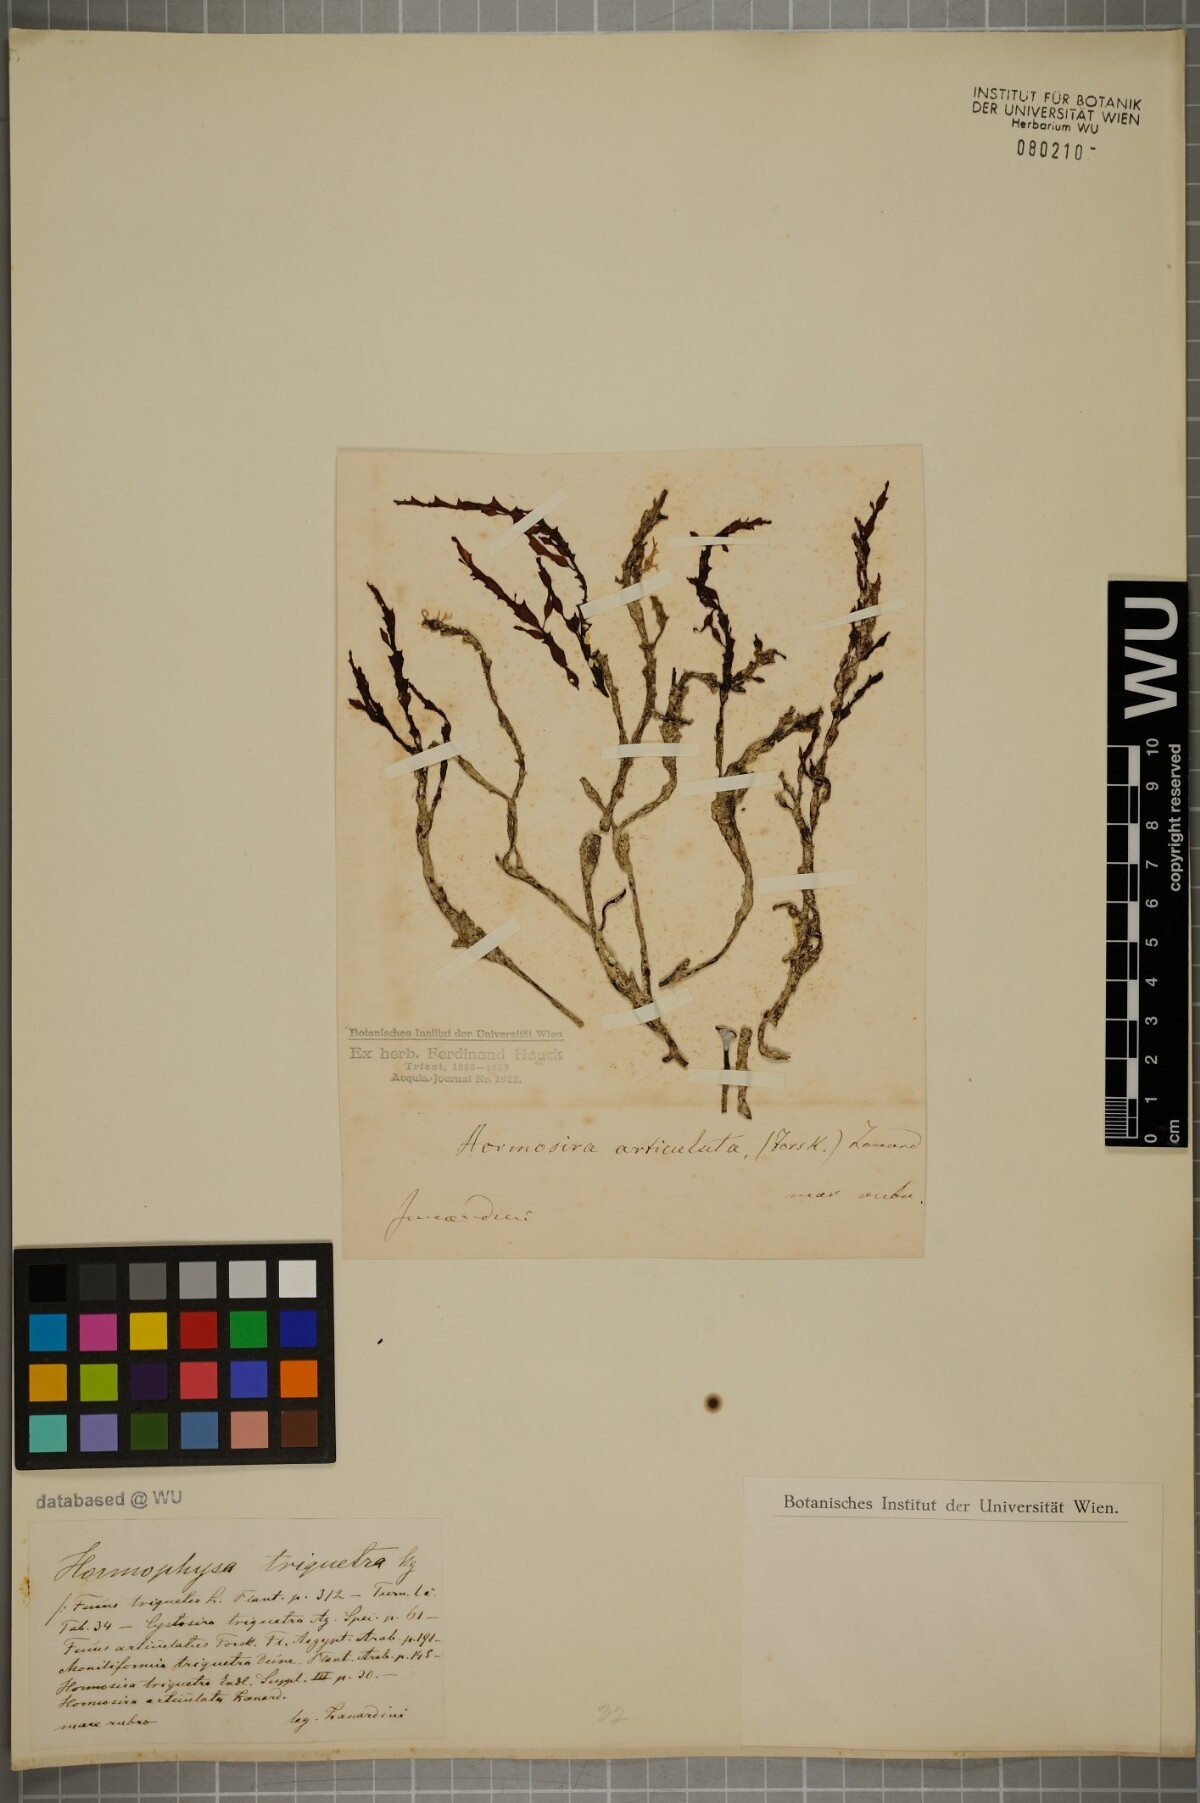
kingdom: Chromista
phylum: Ochrophyta
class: Phaeophyceae
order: Fucales
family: Sargassaceae
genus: Hormophysa
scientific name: Hormophysa cuneiformis
